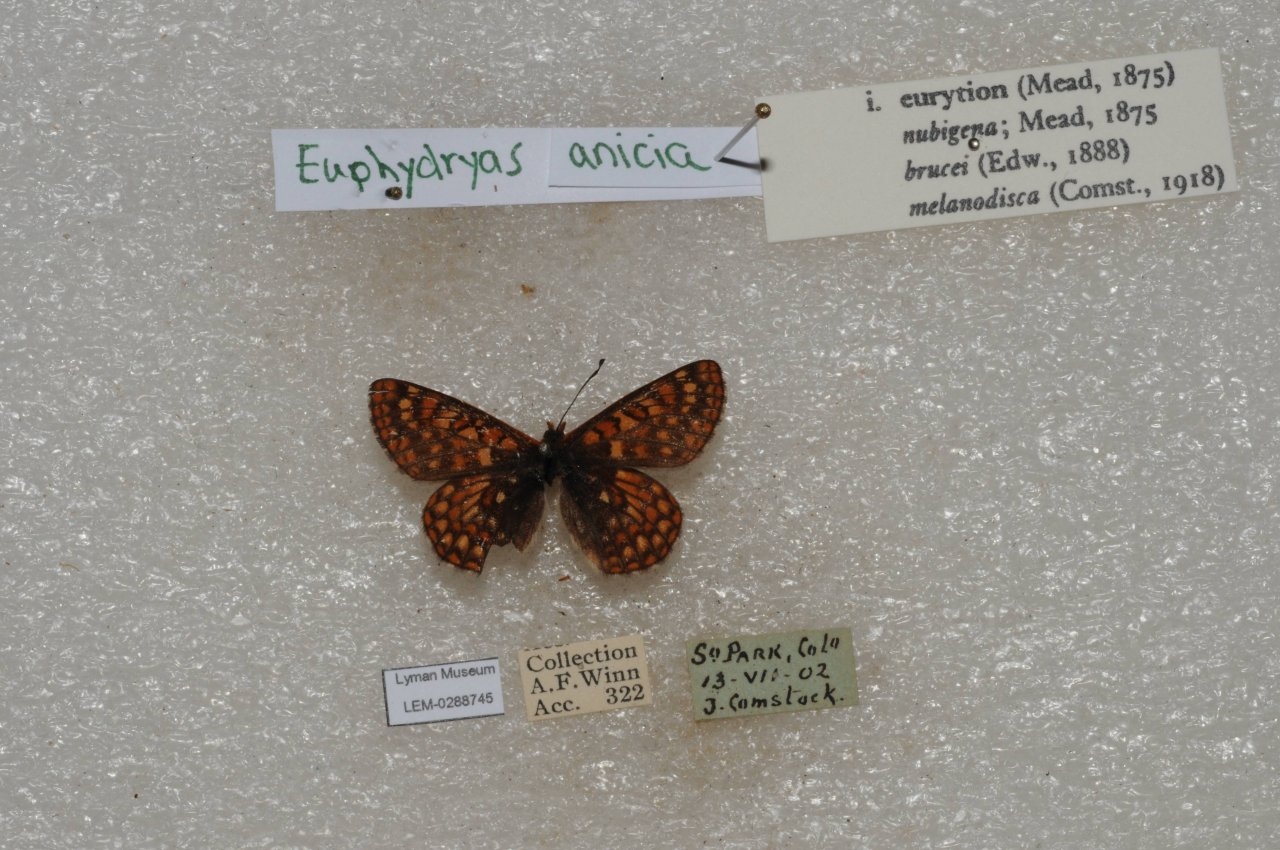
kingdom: Animalia
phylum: Arthropoda
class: Insecta
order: Lepidoptera
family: Nymphalidae
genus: Occidryas
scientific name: Occidryas anicia
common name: Anicia Checkerspot
